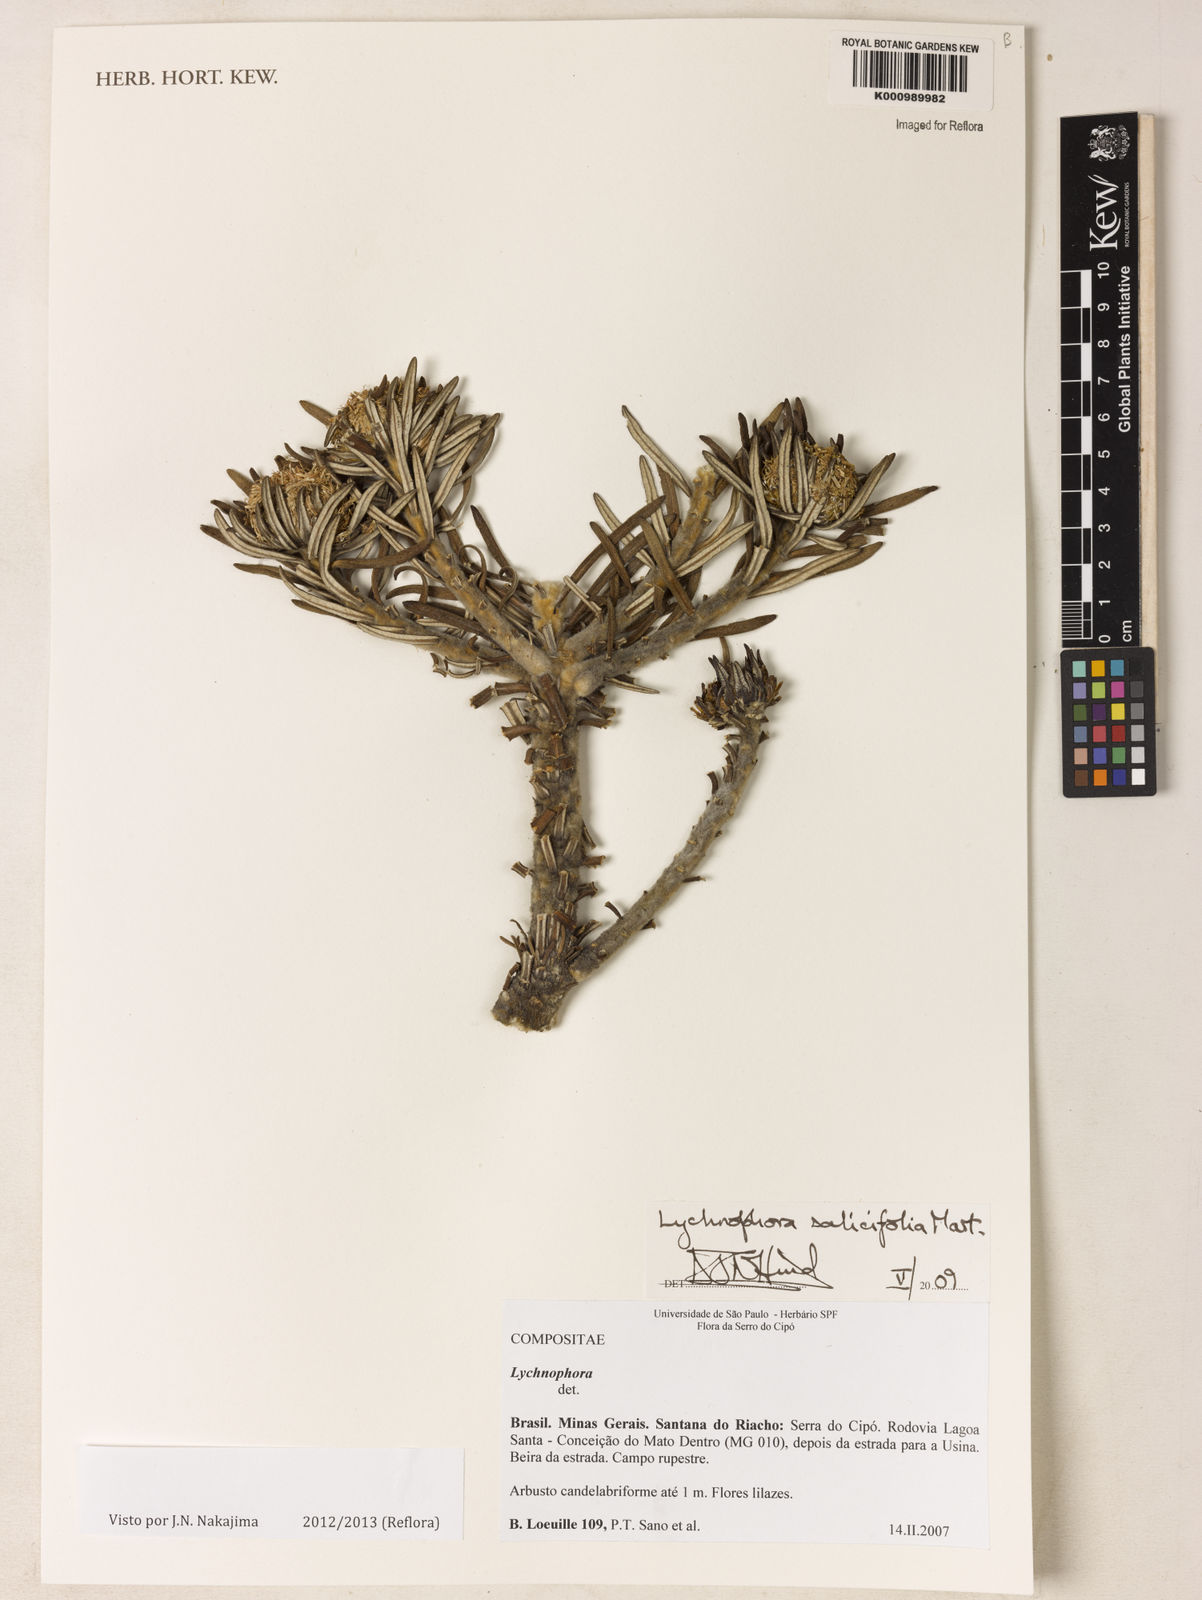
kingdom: Plantae
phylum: Tracheophyta
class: Magnoliopsida
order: Asterales
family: Asteraceae
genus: Lychnophora
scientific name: Lychnophora salicifolia
